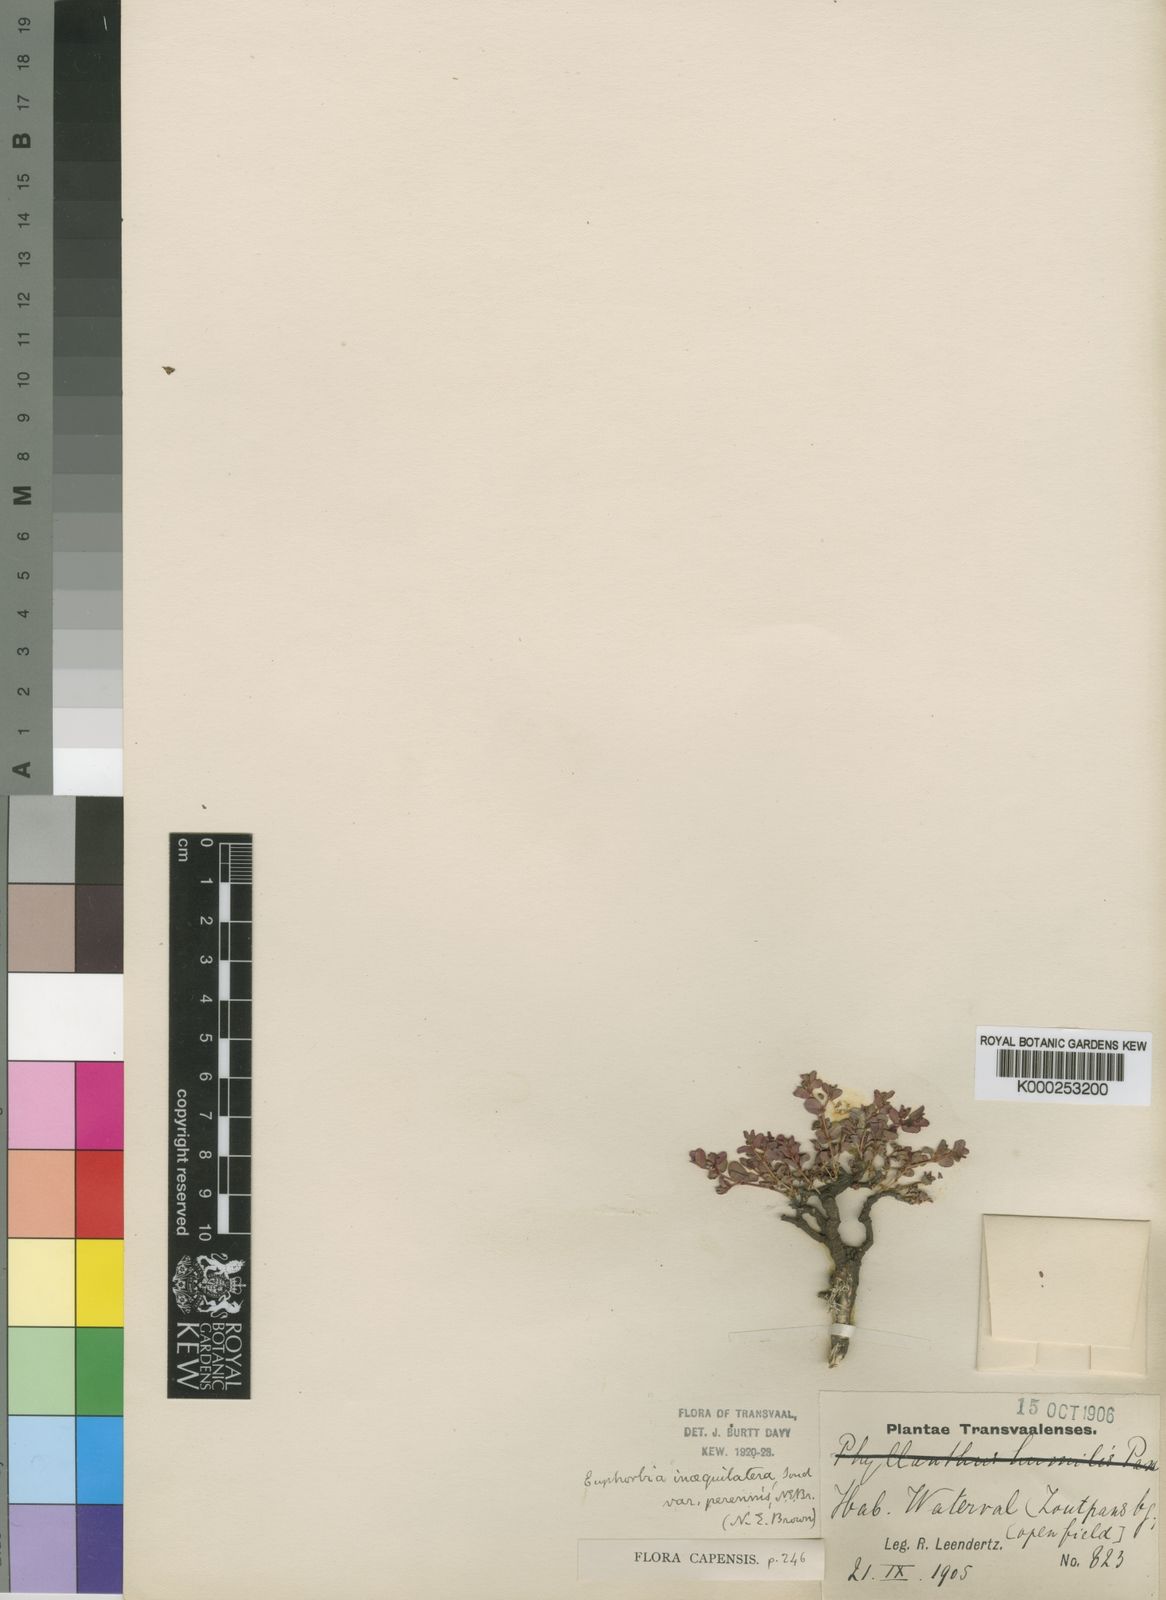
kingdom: Plantae
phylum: Tracheophyta
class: Magnoliopsida
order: Malpighiales
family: Euphorbiaceae
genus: Euphorbia
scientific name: Euphorbia inaequilatera
